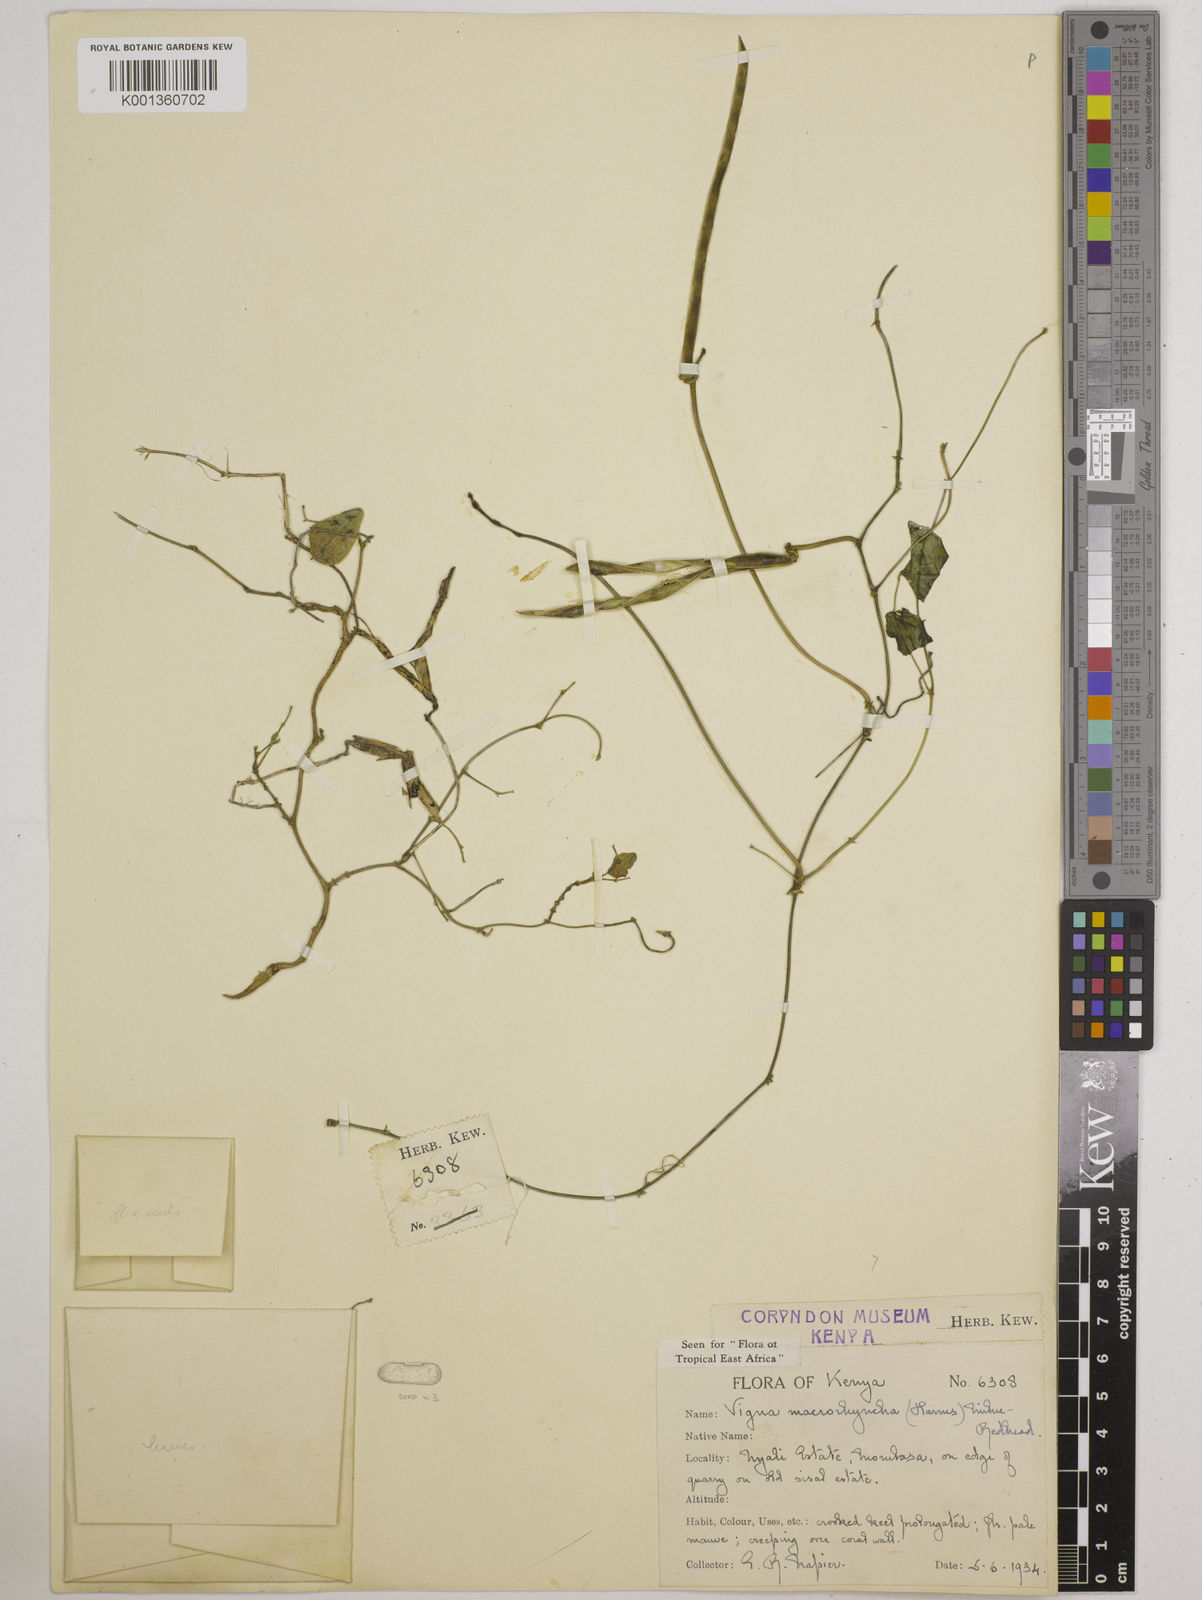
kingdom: Plantae
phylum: Tracheophyta
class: Magnoliopsida
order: Fabales
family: Fabaceae
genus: Wajira
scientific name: Wajira grahamiana
